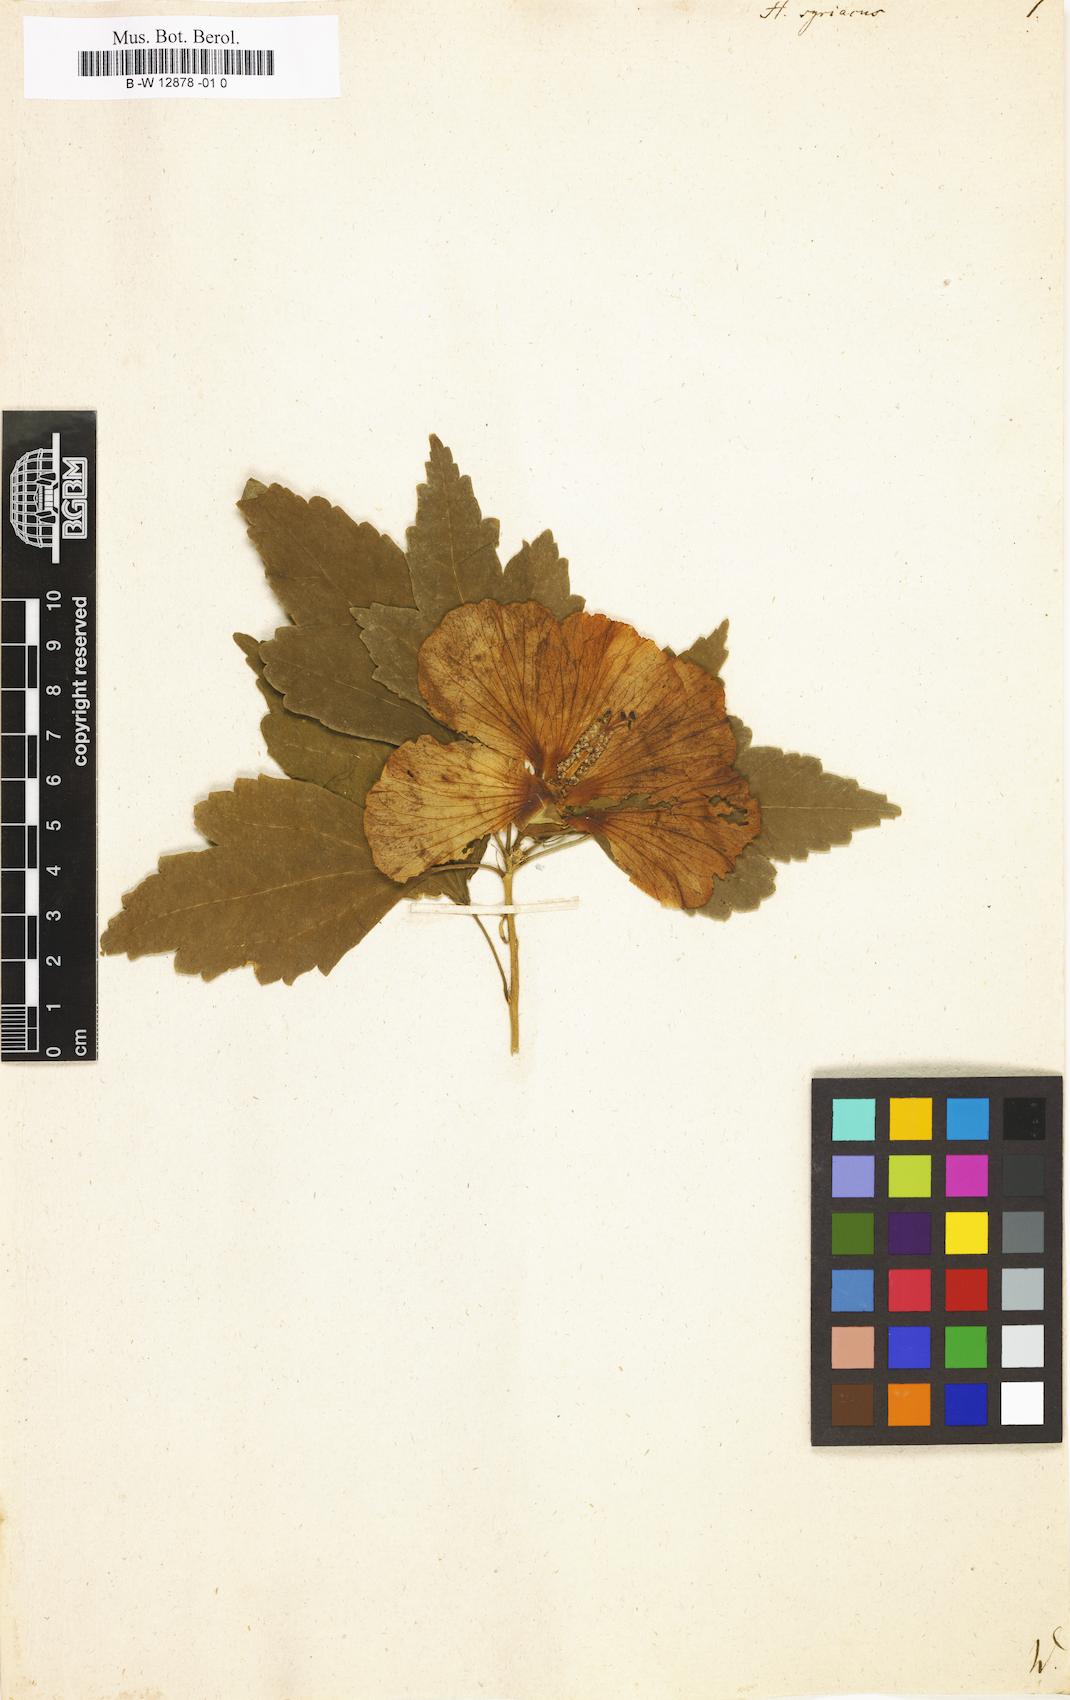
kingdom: Plantae
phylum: Tracheophyta
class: Magnoliopsida
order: Malvales
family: Malvaceae
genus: Hibiscus
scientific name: Hibiscus syriacus
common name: Syrian ketmia
